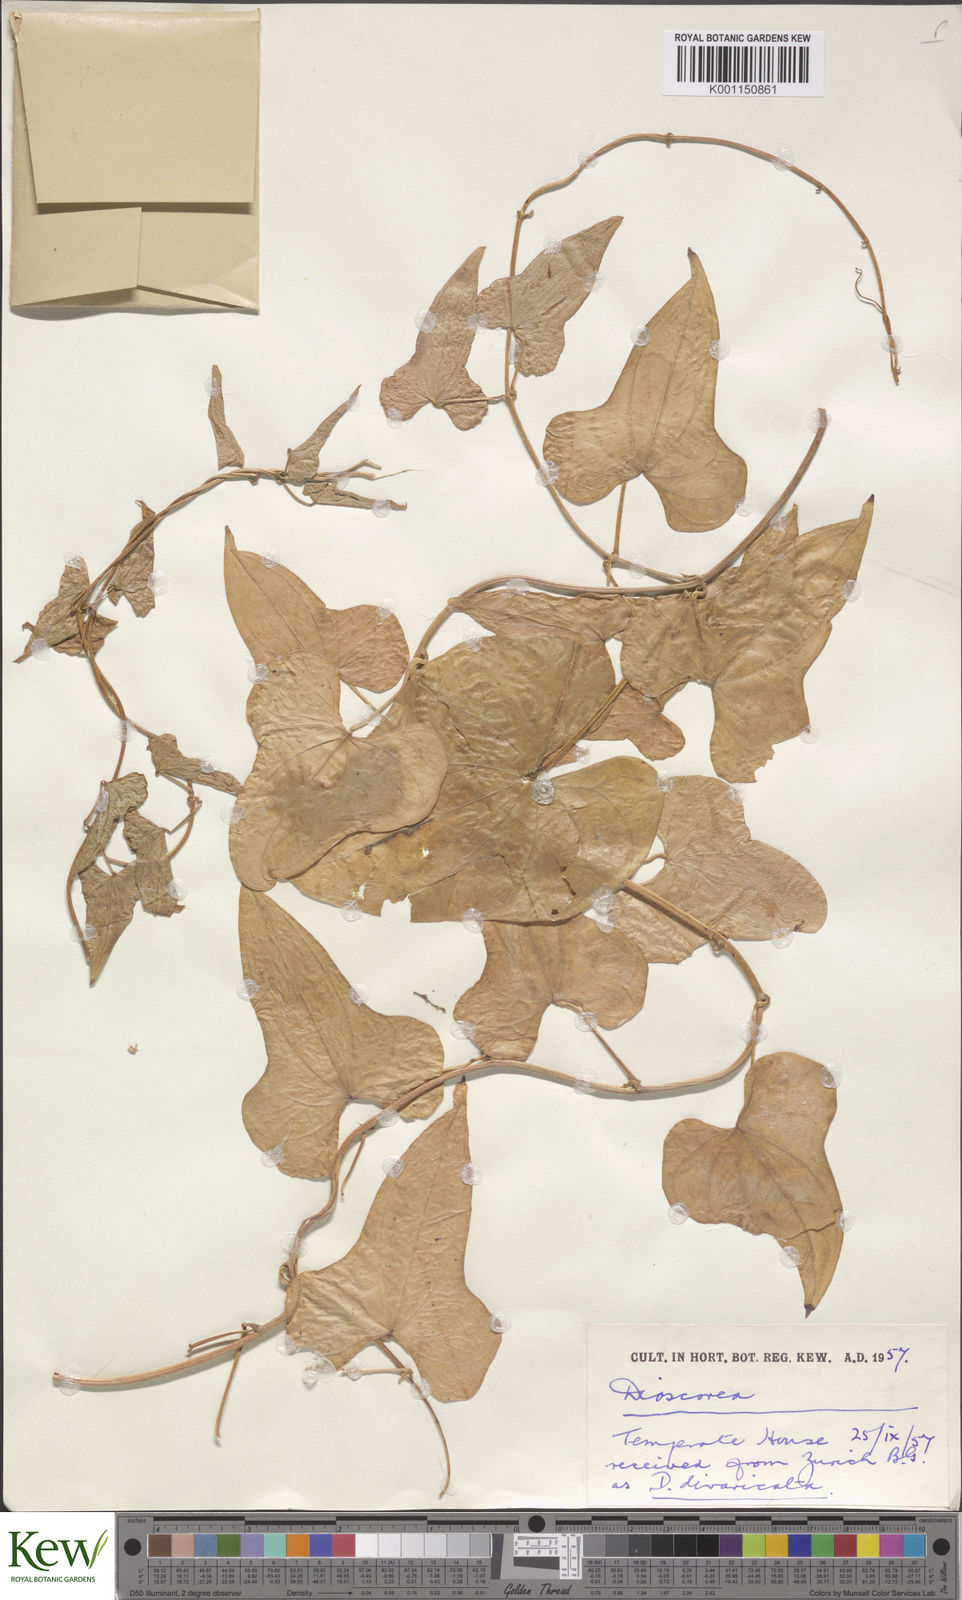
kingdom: Plantae
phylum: Tracheophyta
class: Liliopsida
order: Dioscoreales
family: Dioscoreaceae
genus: Dioscorea
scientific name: Dioscorea
